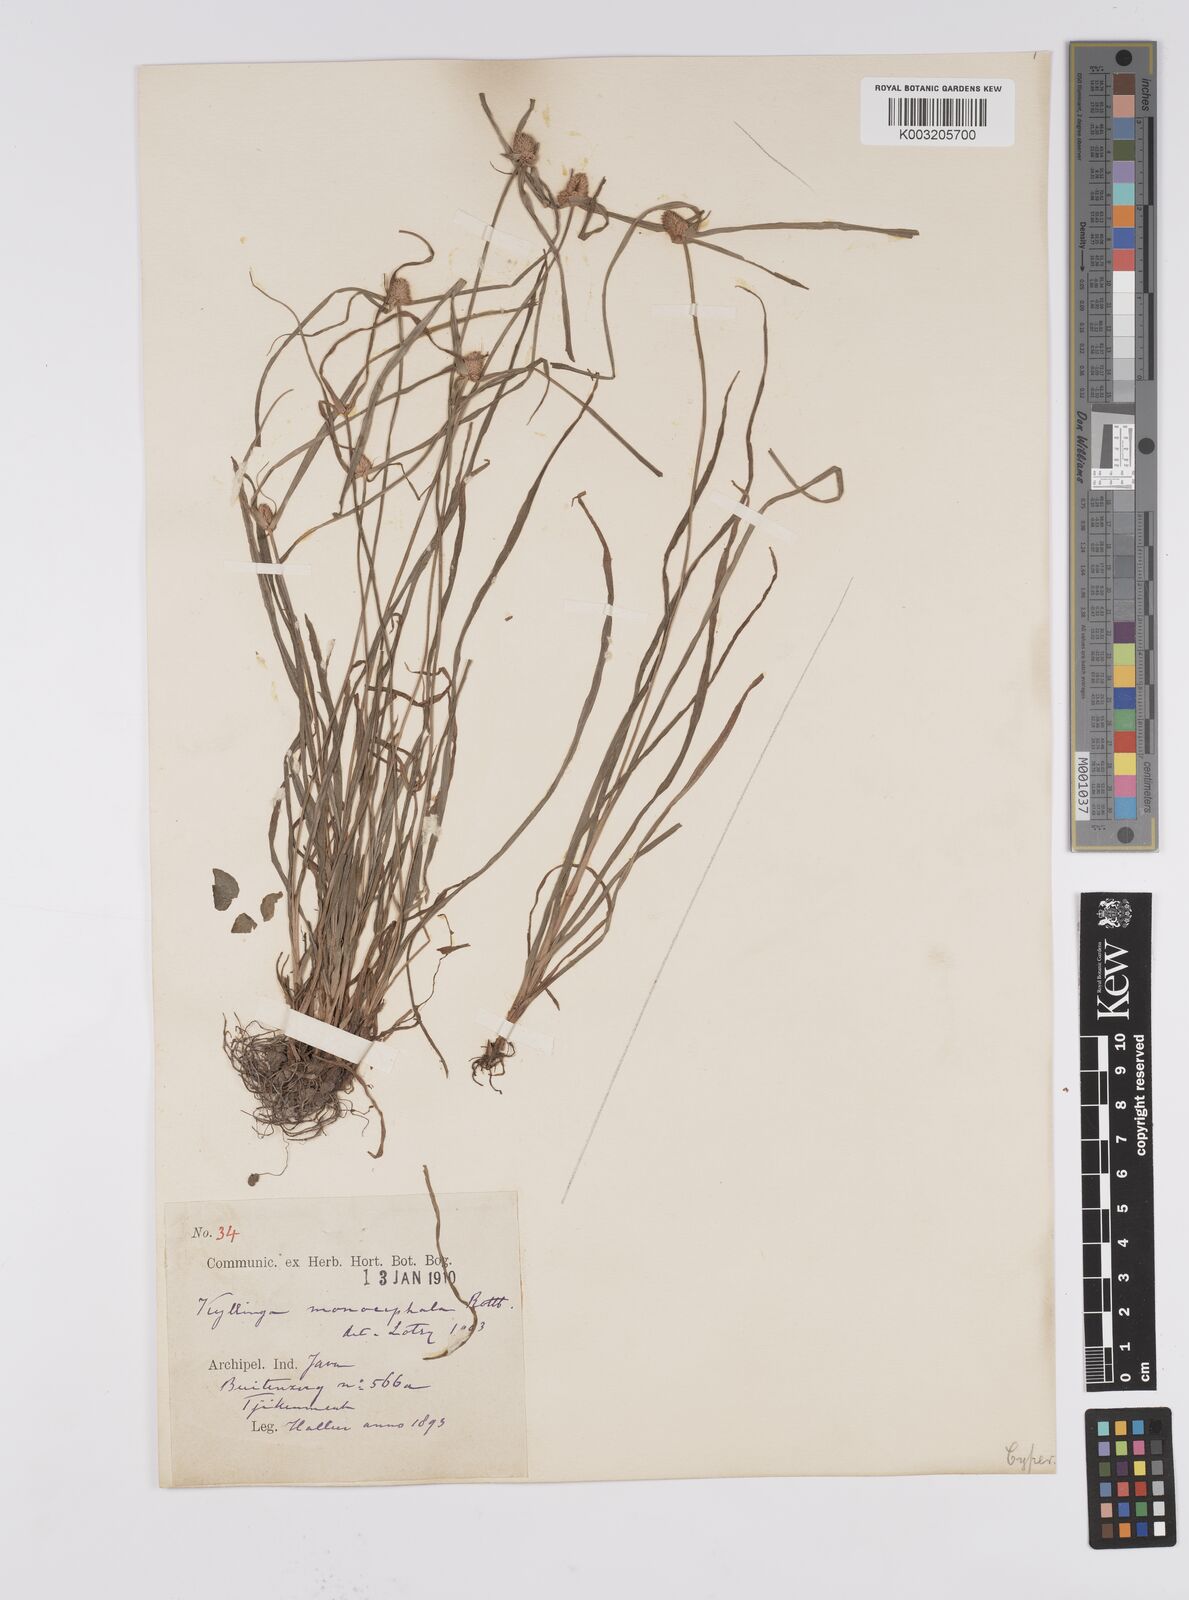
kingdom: Plantae
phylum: Tracheophyta
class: Liliopsida
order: Poales
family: Cyperaceae
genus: Cyperus
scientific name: Cyperus nemoralis
